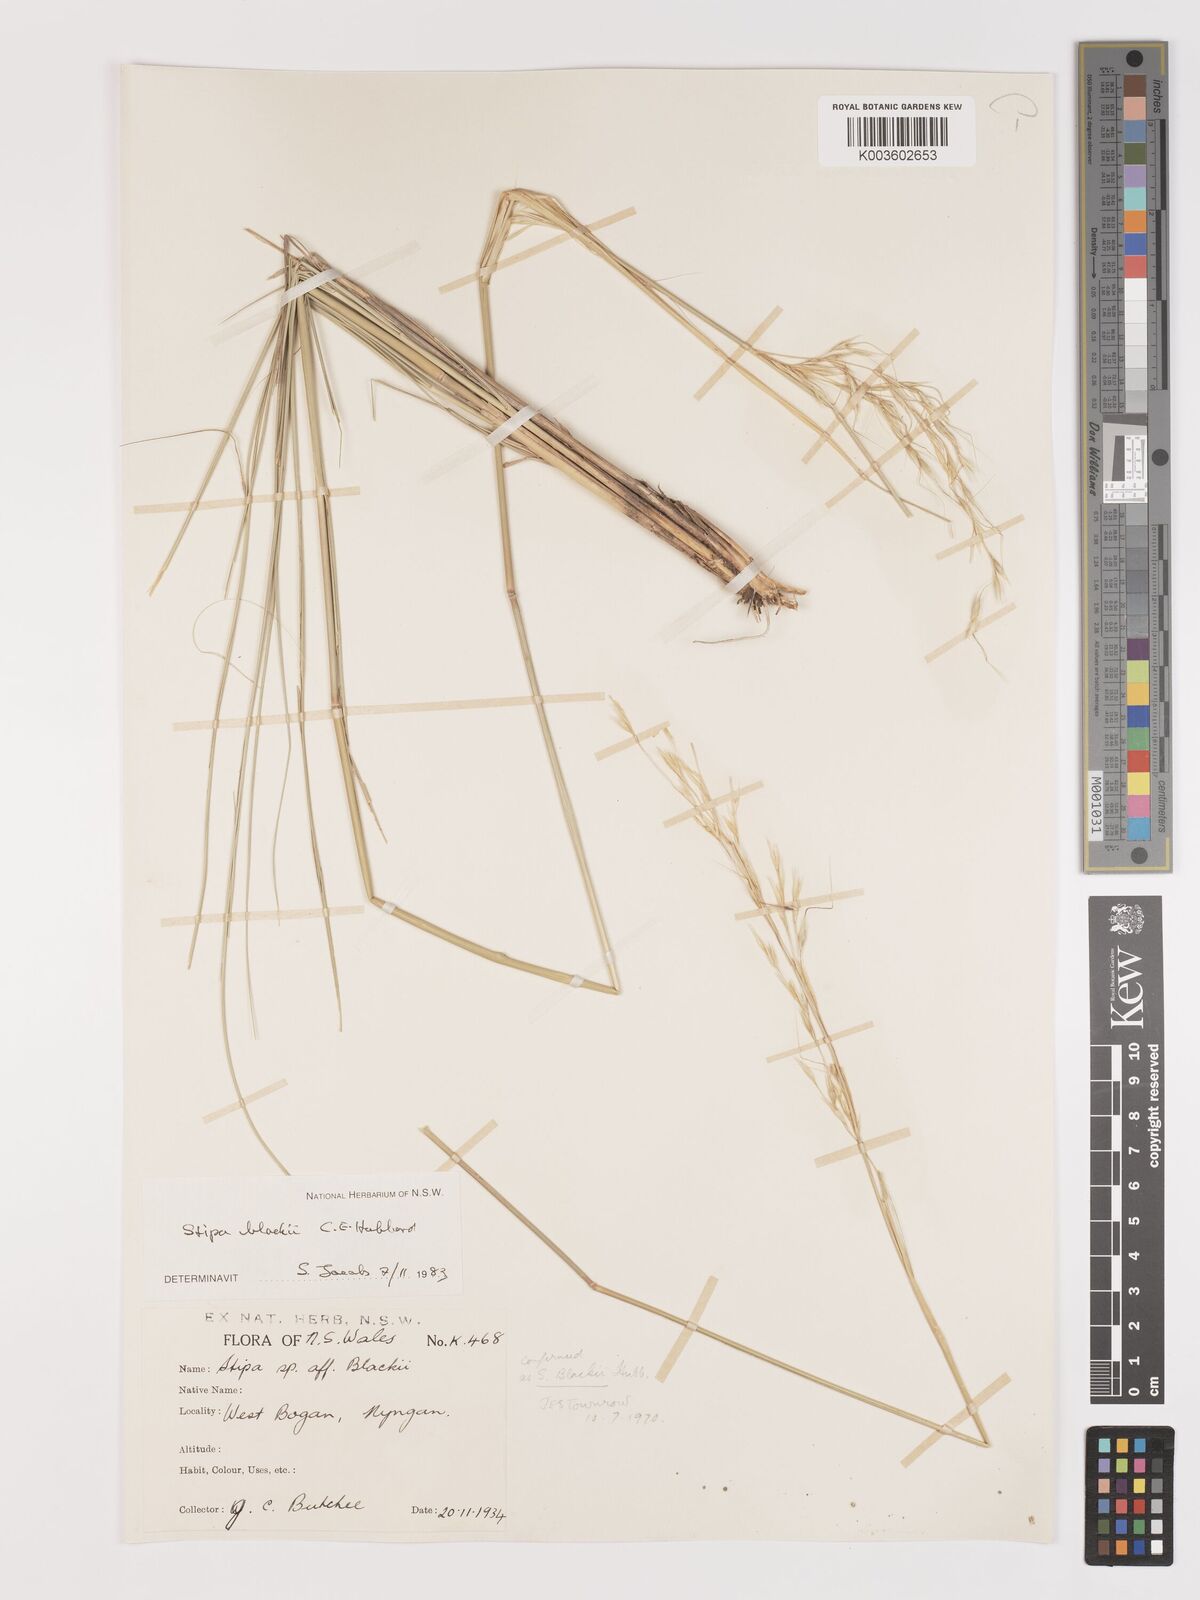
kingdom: Plantae
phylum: Tracheophyta
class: Liliopsida
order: Poales
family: Poaceae
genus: Austrostipa
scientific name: Austrostipa blackii
